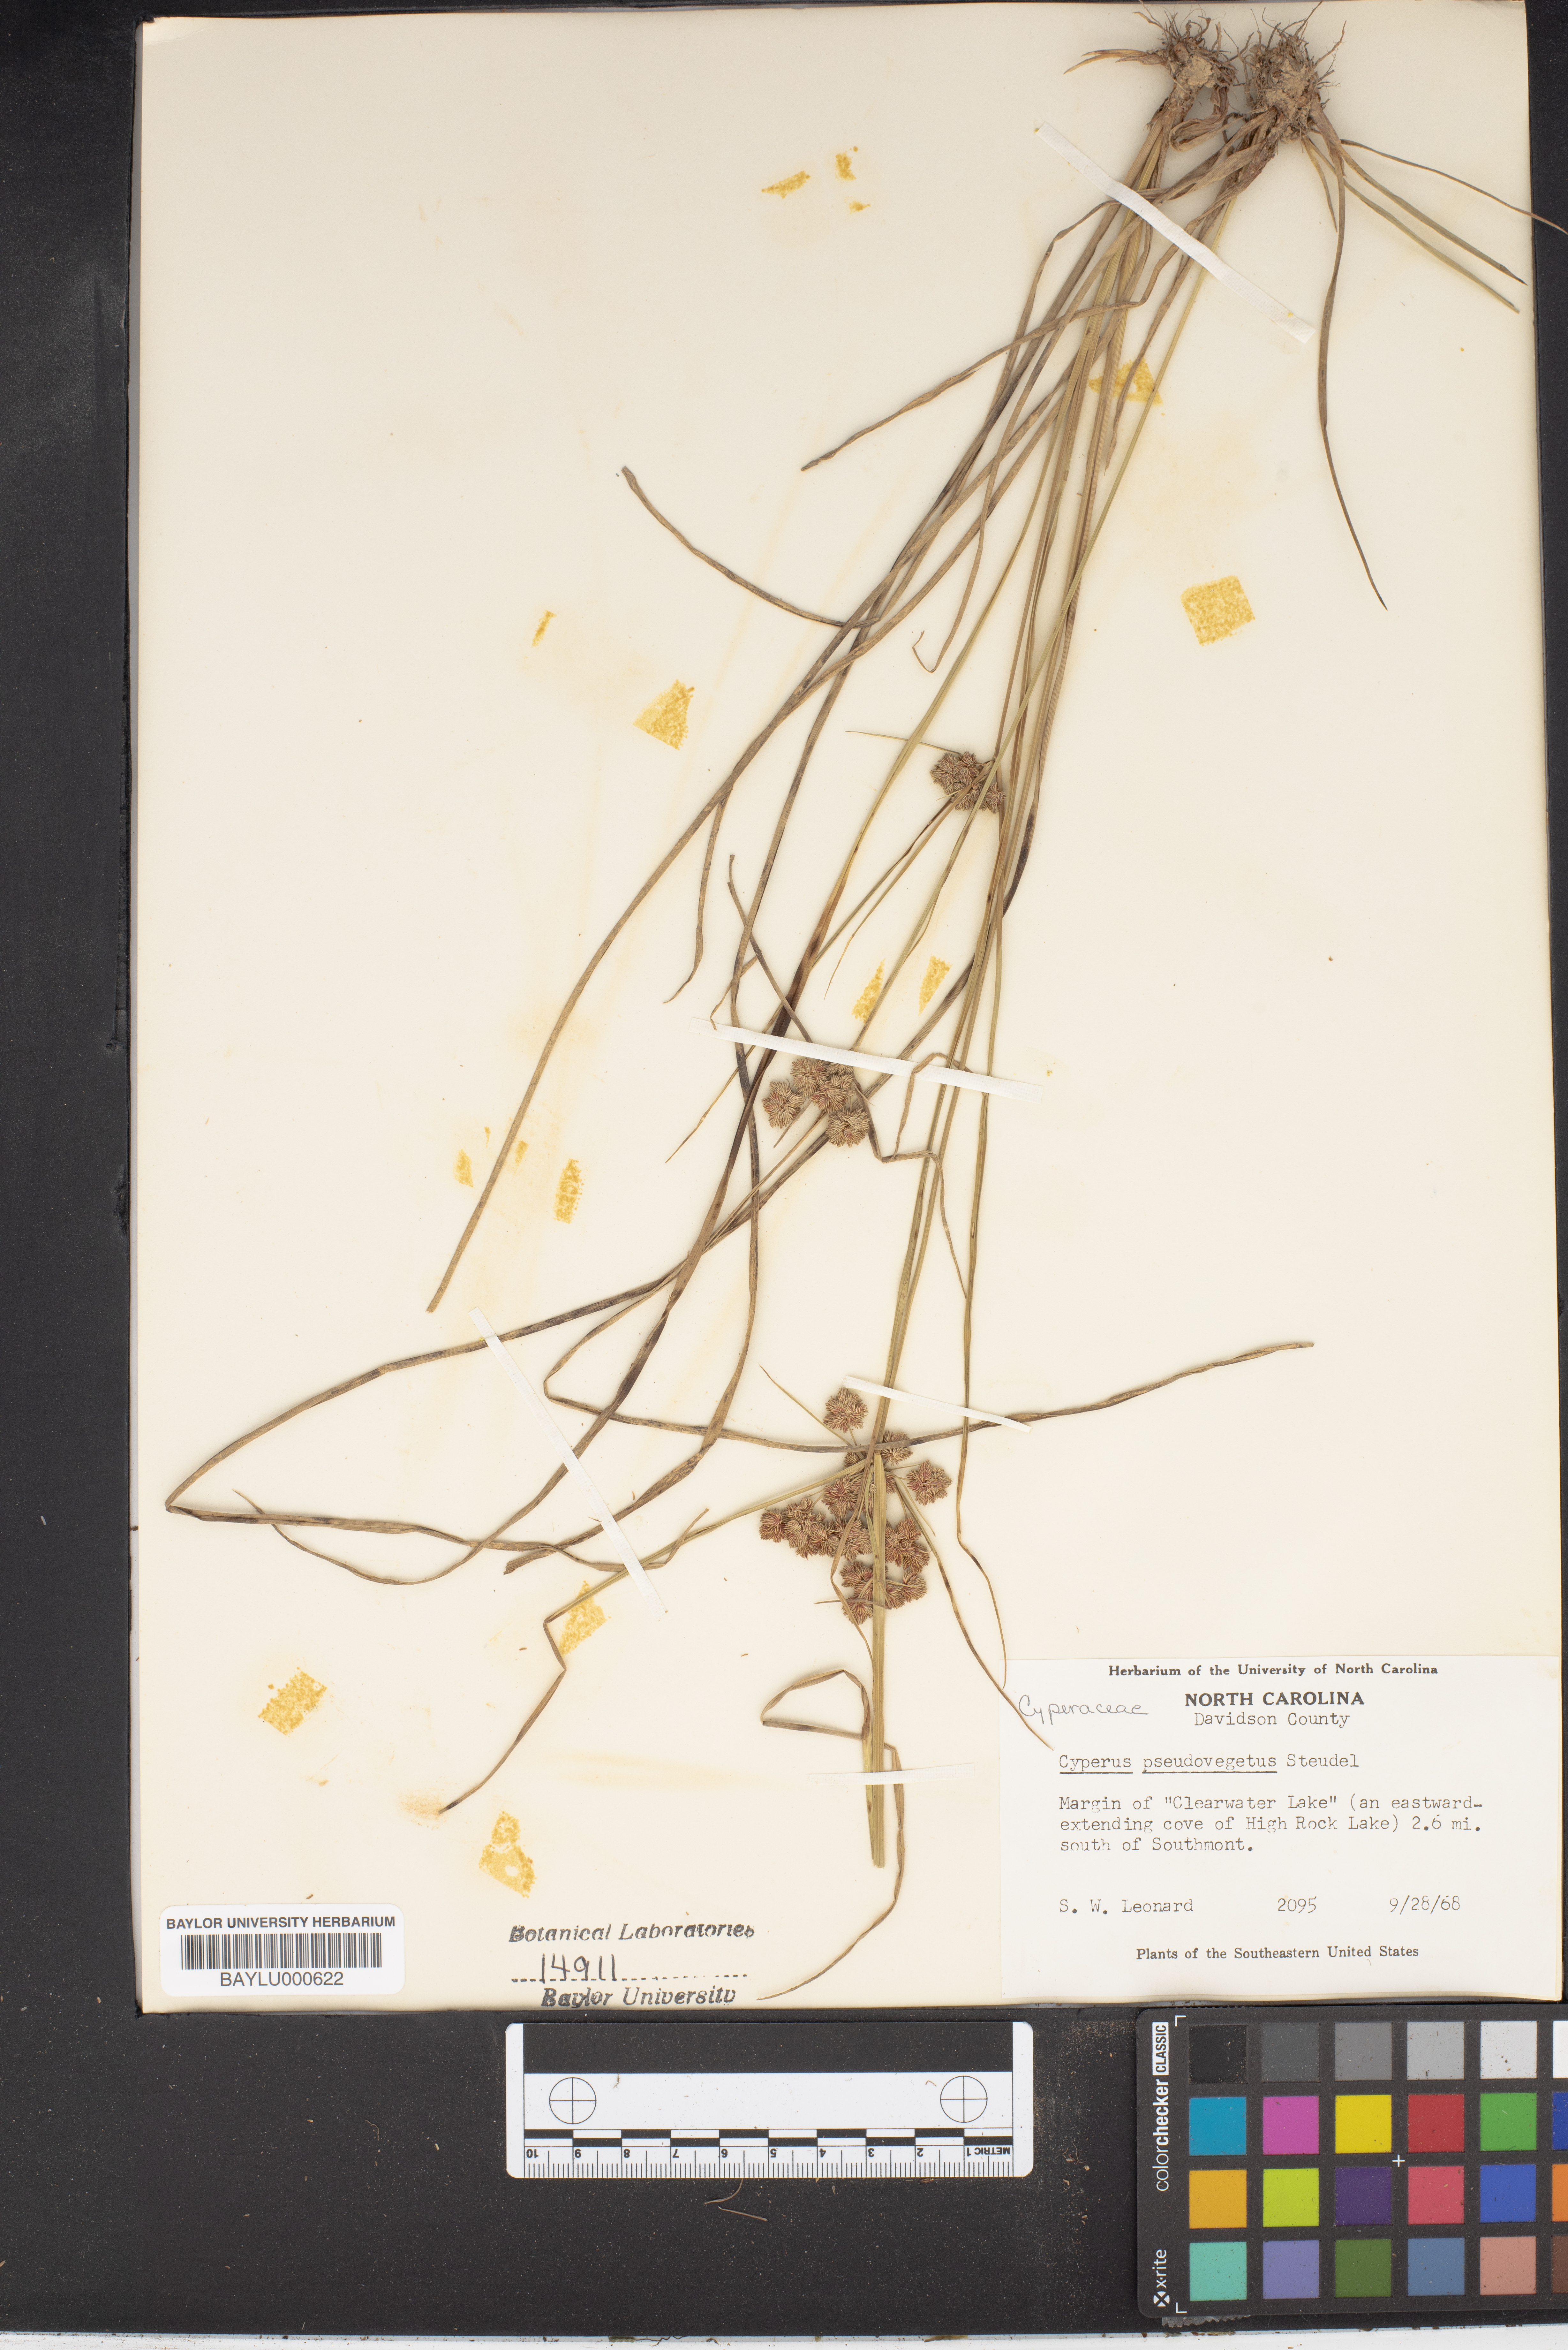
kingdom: Plantae
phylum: Tracheophyta
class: Liliopsida
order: Poales
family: Cyperaceae
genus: Cyperus
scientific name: Cyperus pseudovegetus
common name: Marsh flat sedge
